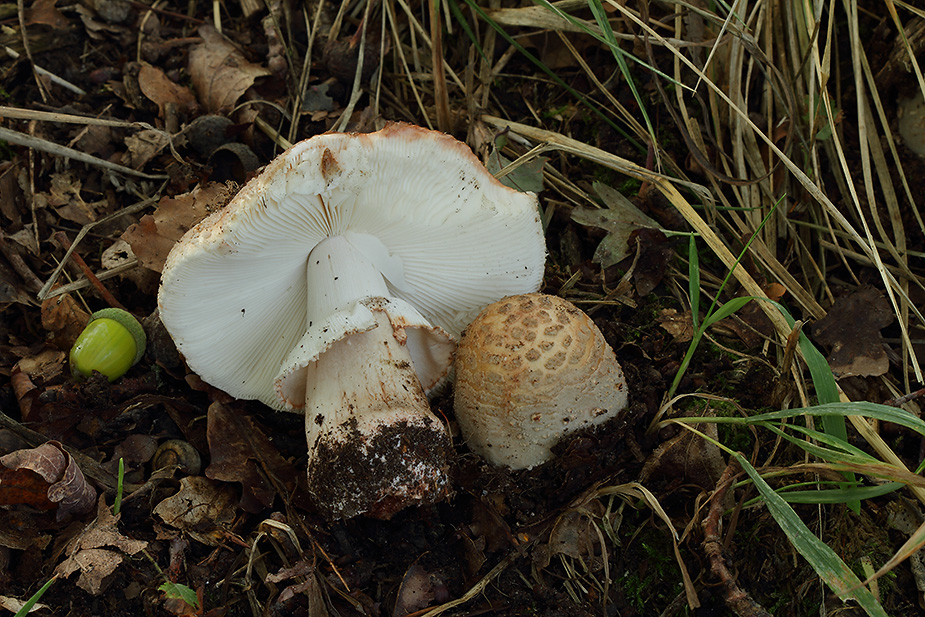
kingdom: Fungi
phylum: Basidiomycota
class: Agaricomycetes
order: Agaricales
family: Amanitaceae
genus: Amanita
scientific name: Amanita rubescens
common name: rødmende fluesvamp
